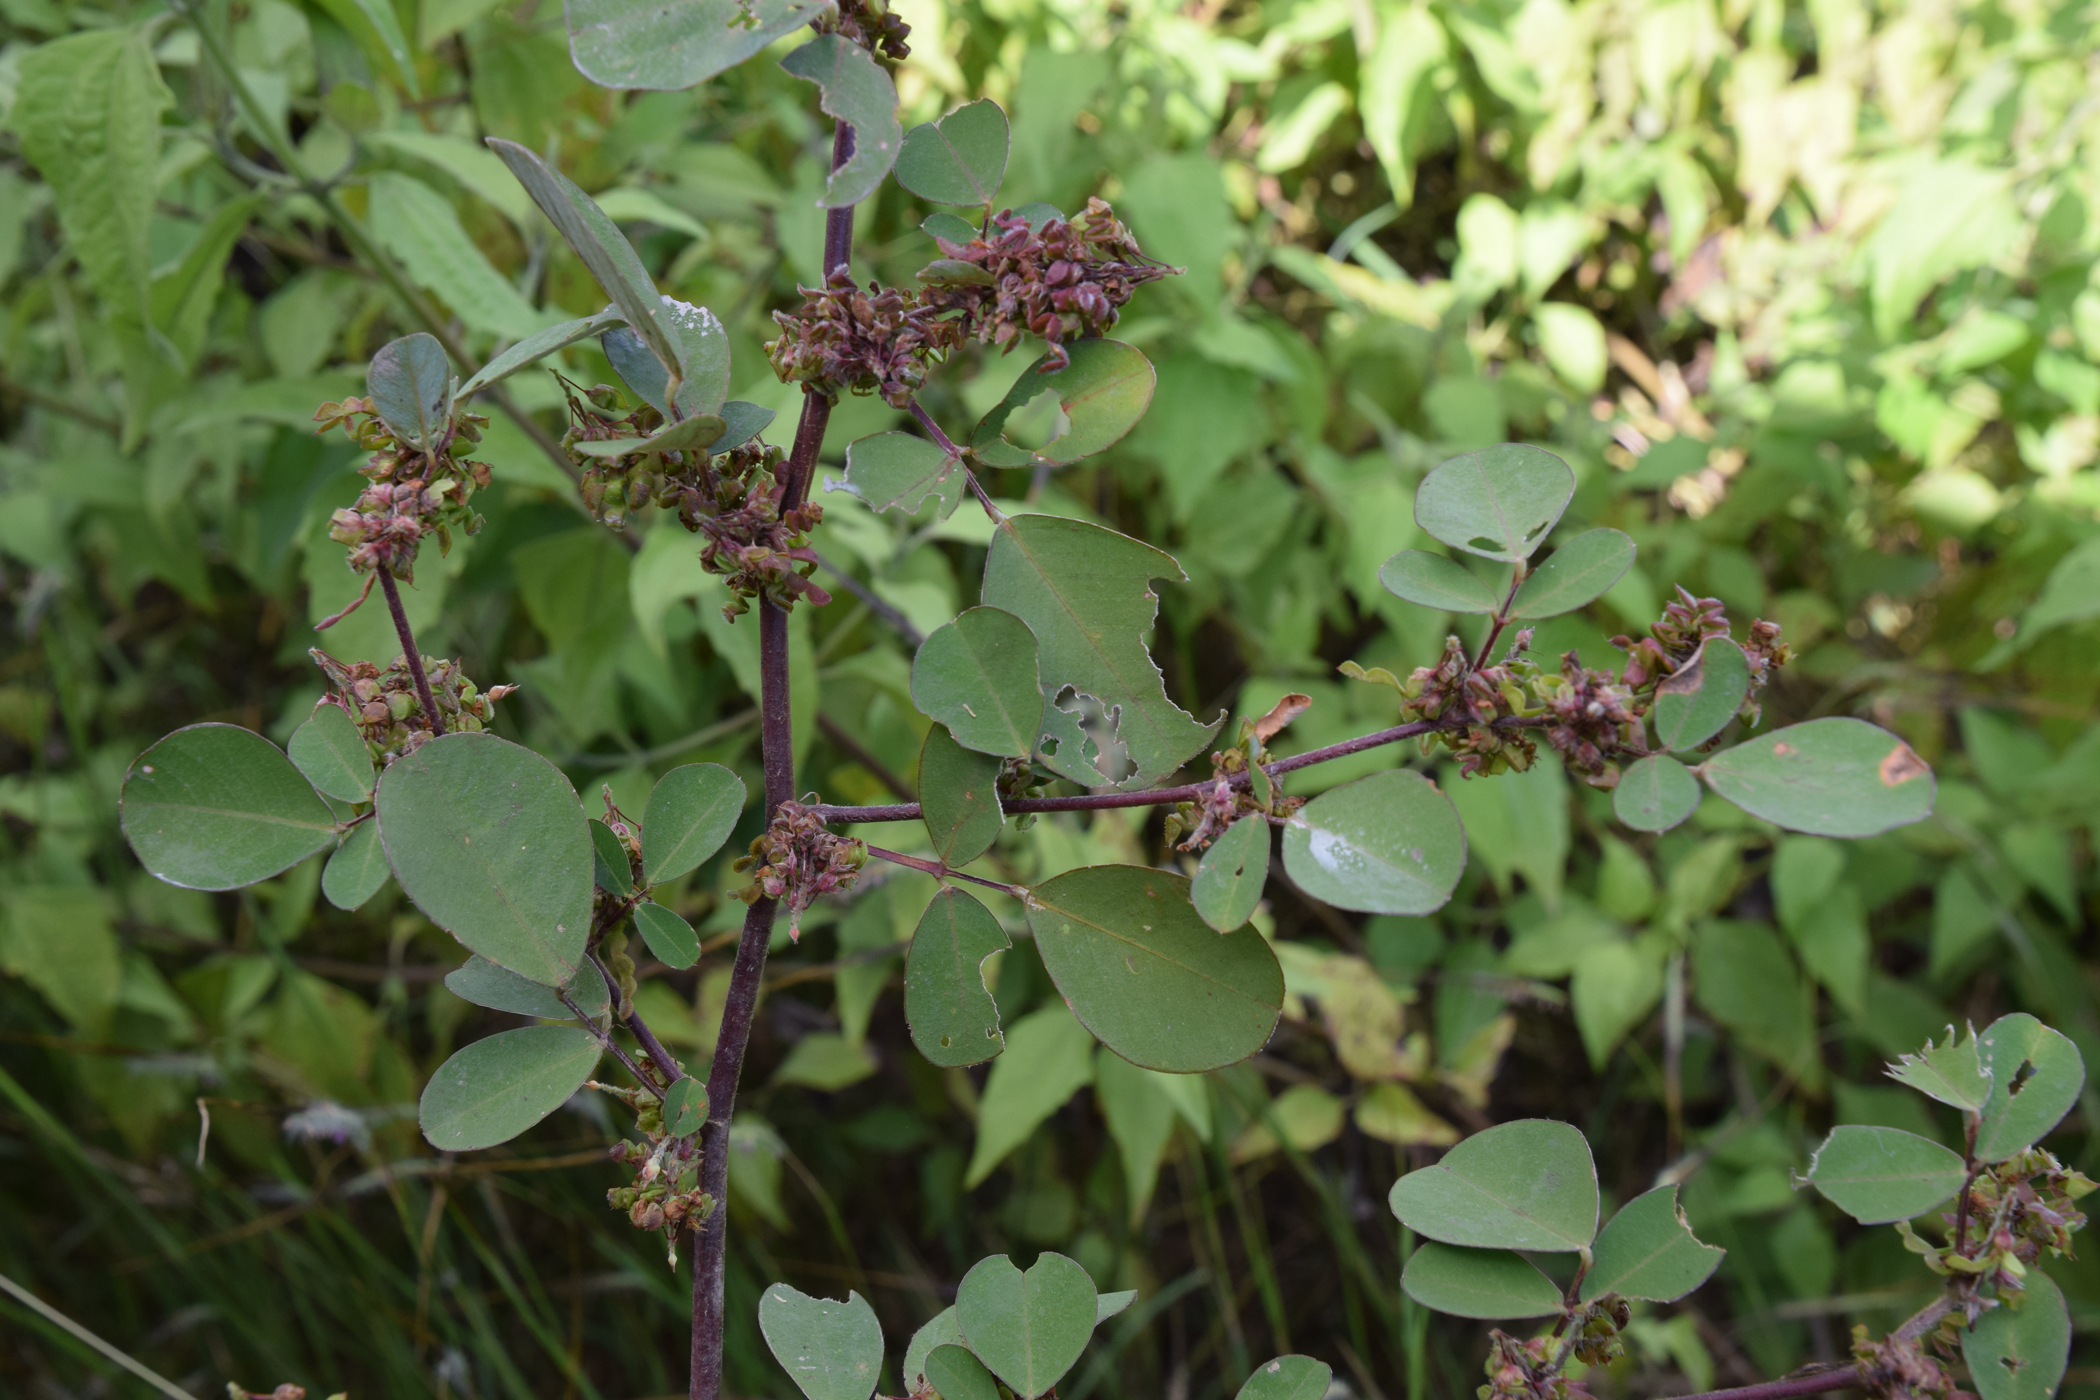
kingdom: Plantae
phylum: Tracheophyta
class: Magnoliopsida
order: Fabales
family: Fabaceae
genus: Grona
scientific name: Grona styracifolia
